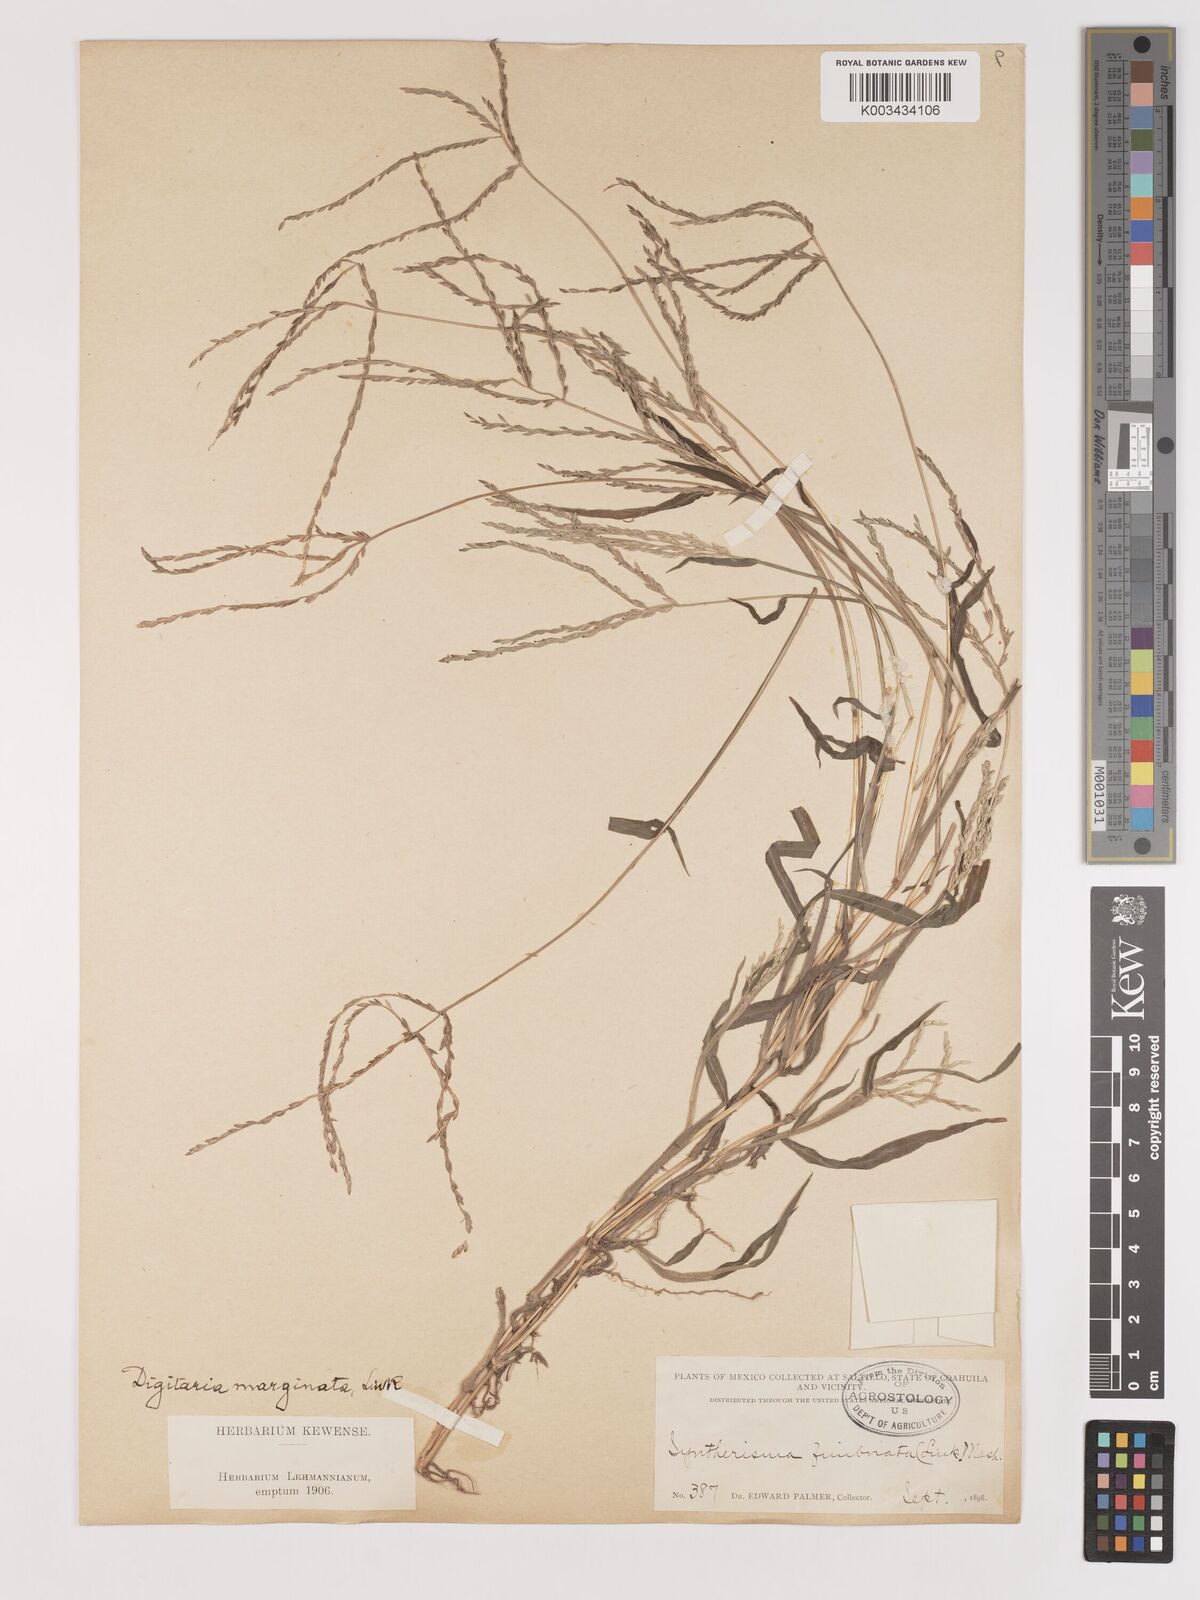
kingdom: Plantae
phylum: Tracheophyta
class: Liliopsida
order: Poales
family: Poaceae
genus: Digitaria
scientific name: Digitaria ciliaris
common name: Tropical finger-grass
